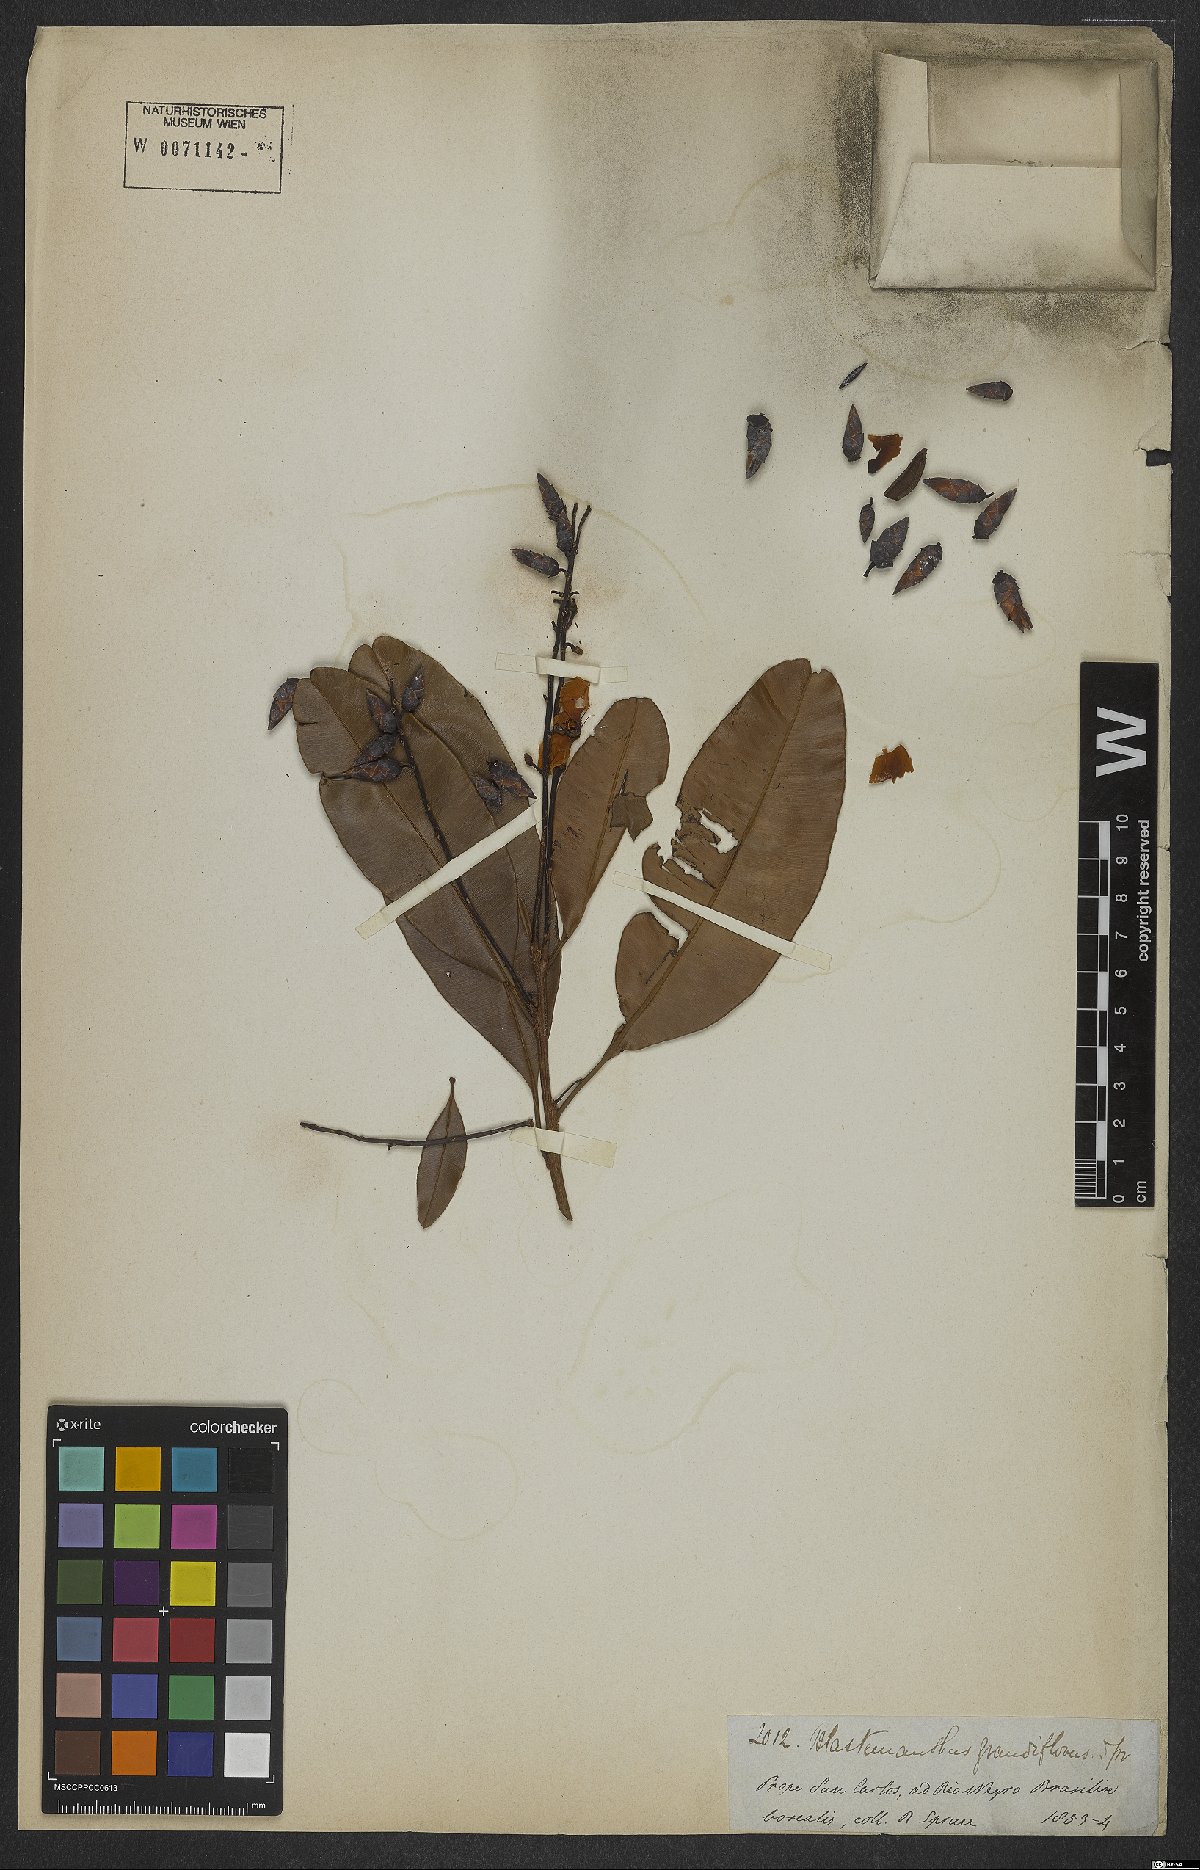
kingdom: Plantae
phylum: Tracheophyta
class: Magnoliopsida
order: Malpighiales
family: Ochnaceae
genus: Blastemanthus
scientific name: Blastemanthus grandiflorus
